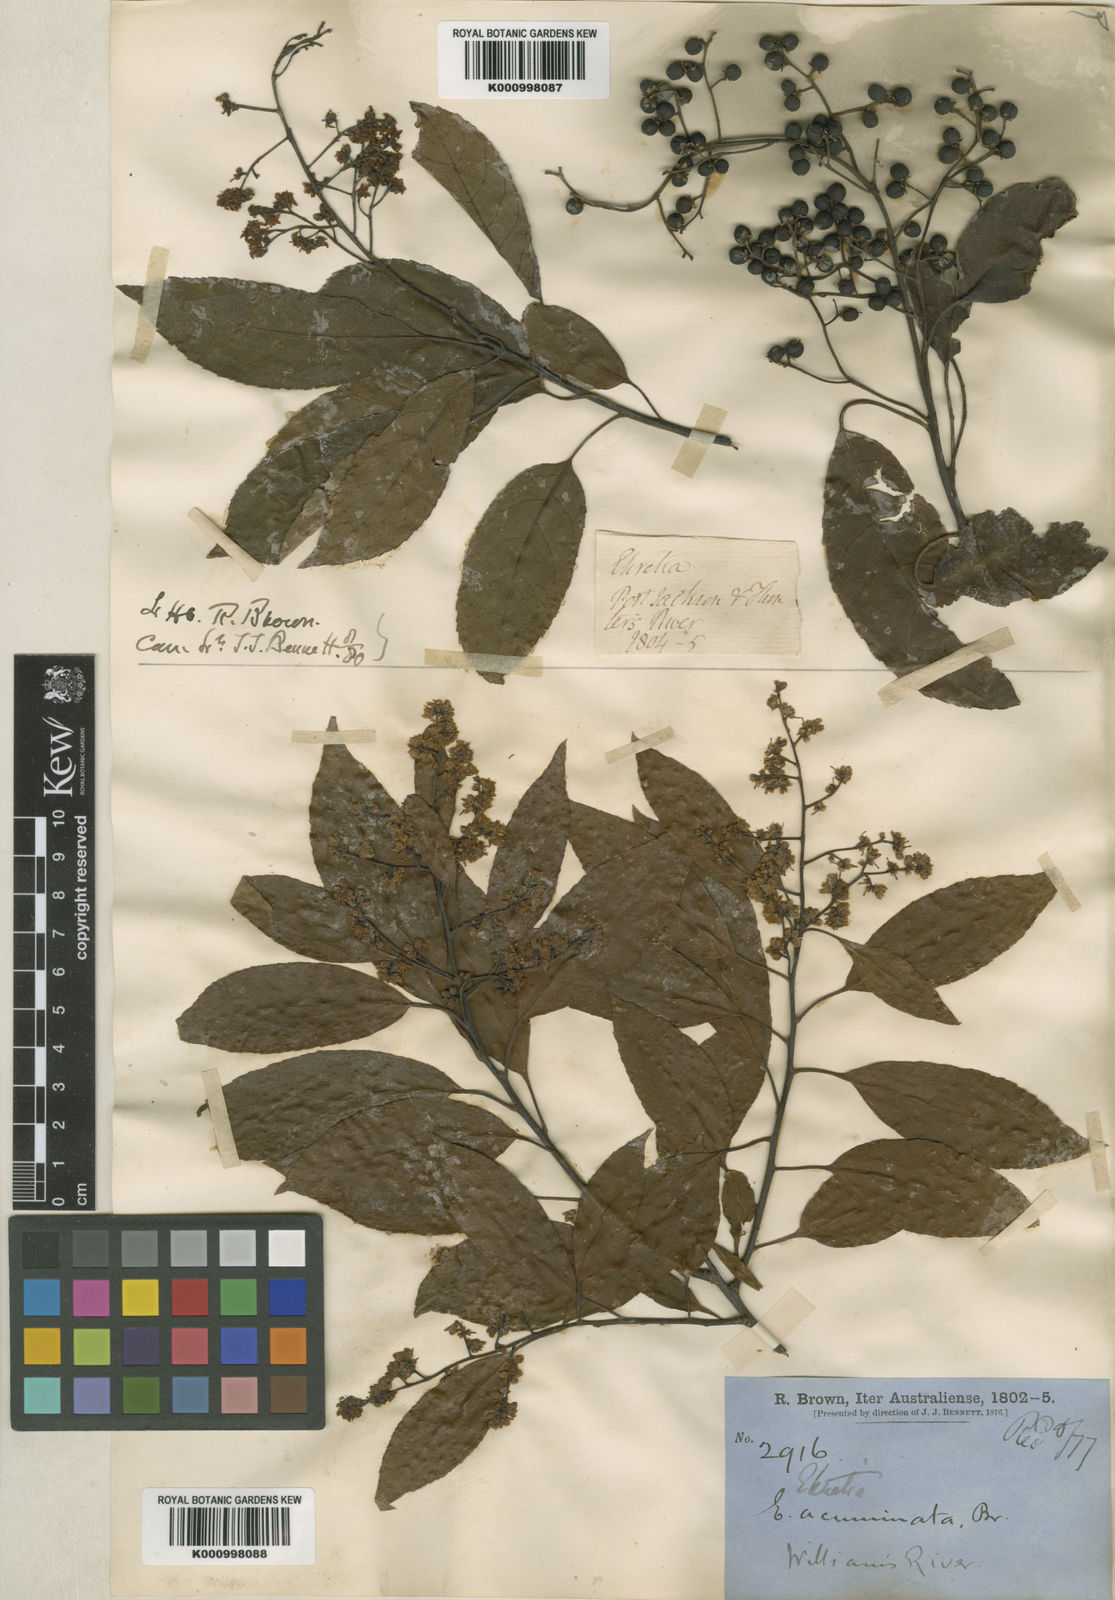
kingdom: Plantae
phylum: Tracheophyta
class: Magnoliopsida
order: Boraginales
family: Ehretiaceae
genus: Ehretia
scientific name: Ehretia acuminata
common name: Kodo wood
